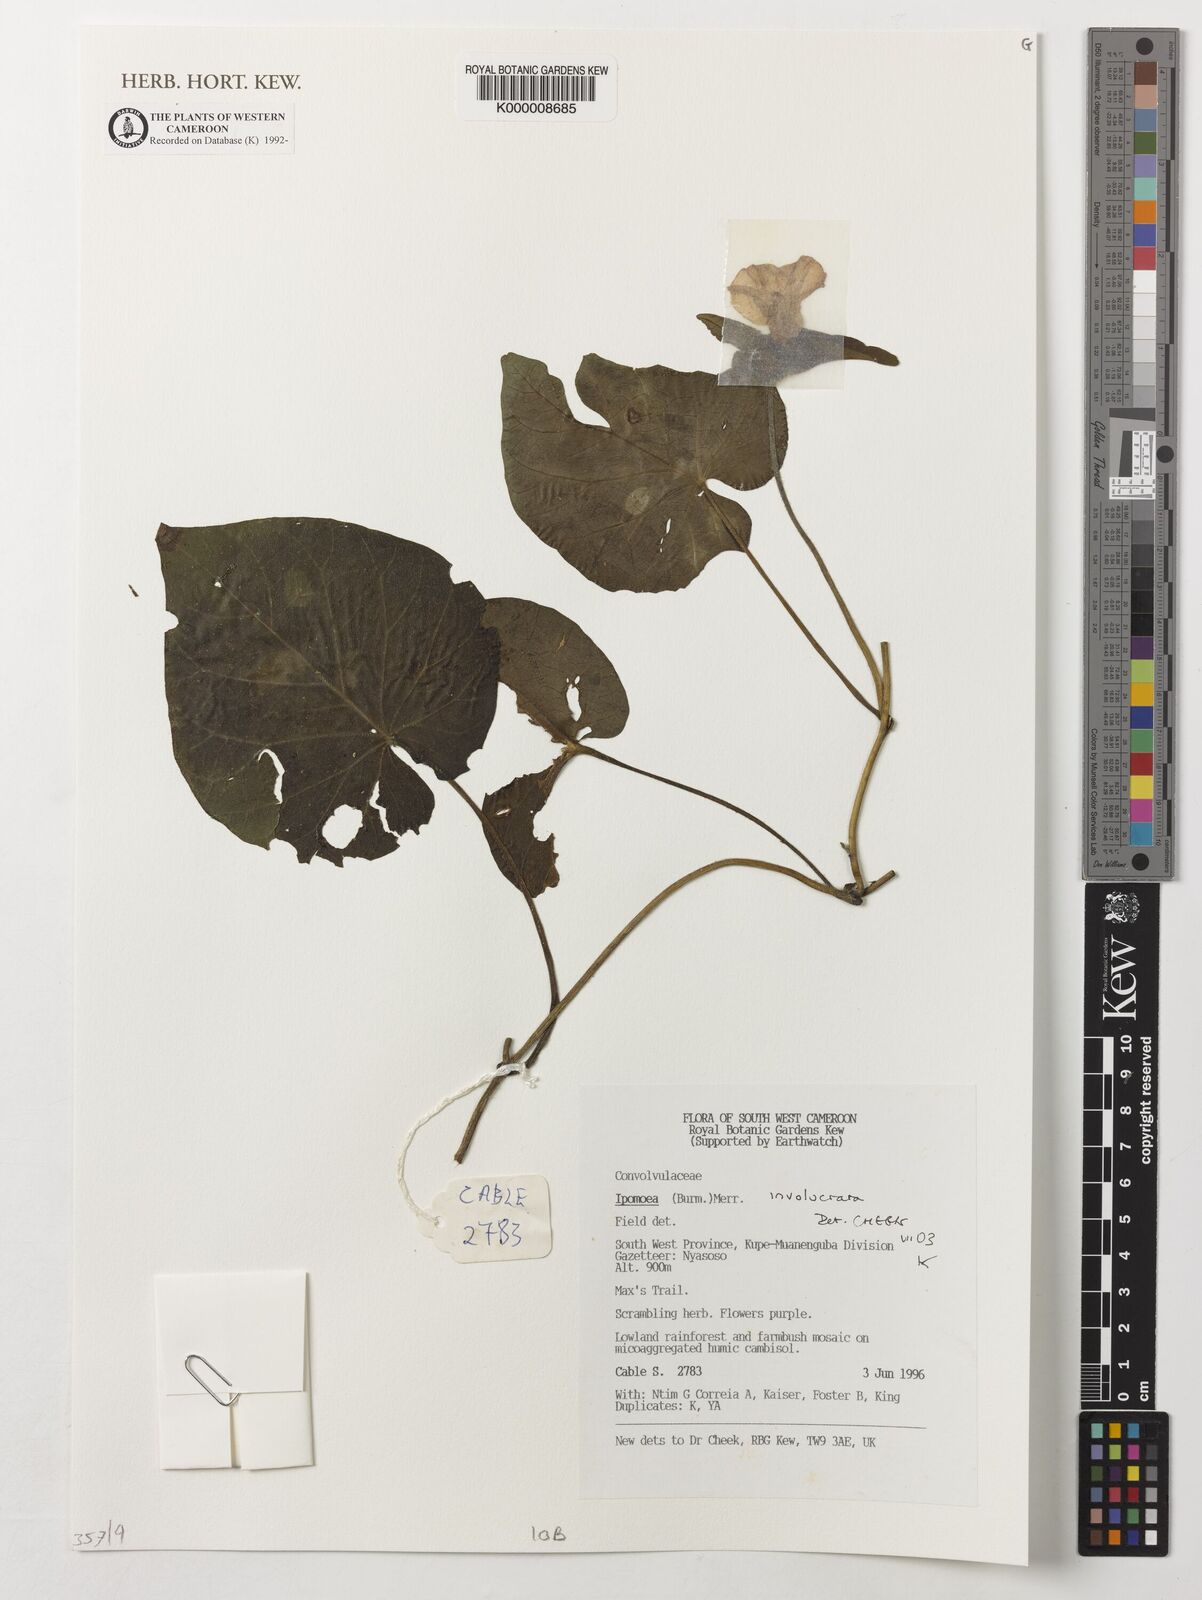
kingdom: Plantae
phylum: Tracheophyta
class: Magnoliopsida
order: Solanales
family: Convolvulaceae
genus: Ipomoea
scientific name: Ipomoea involucrata
